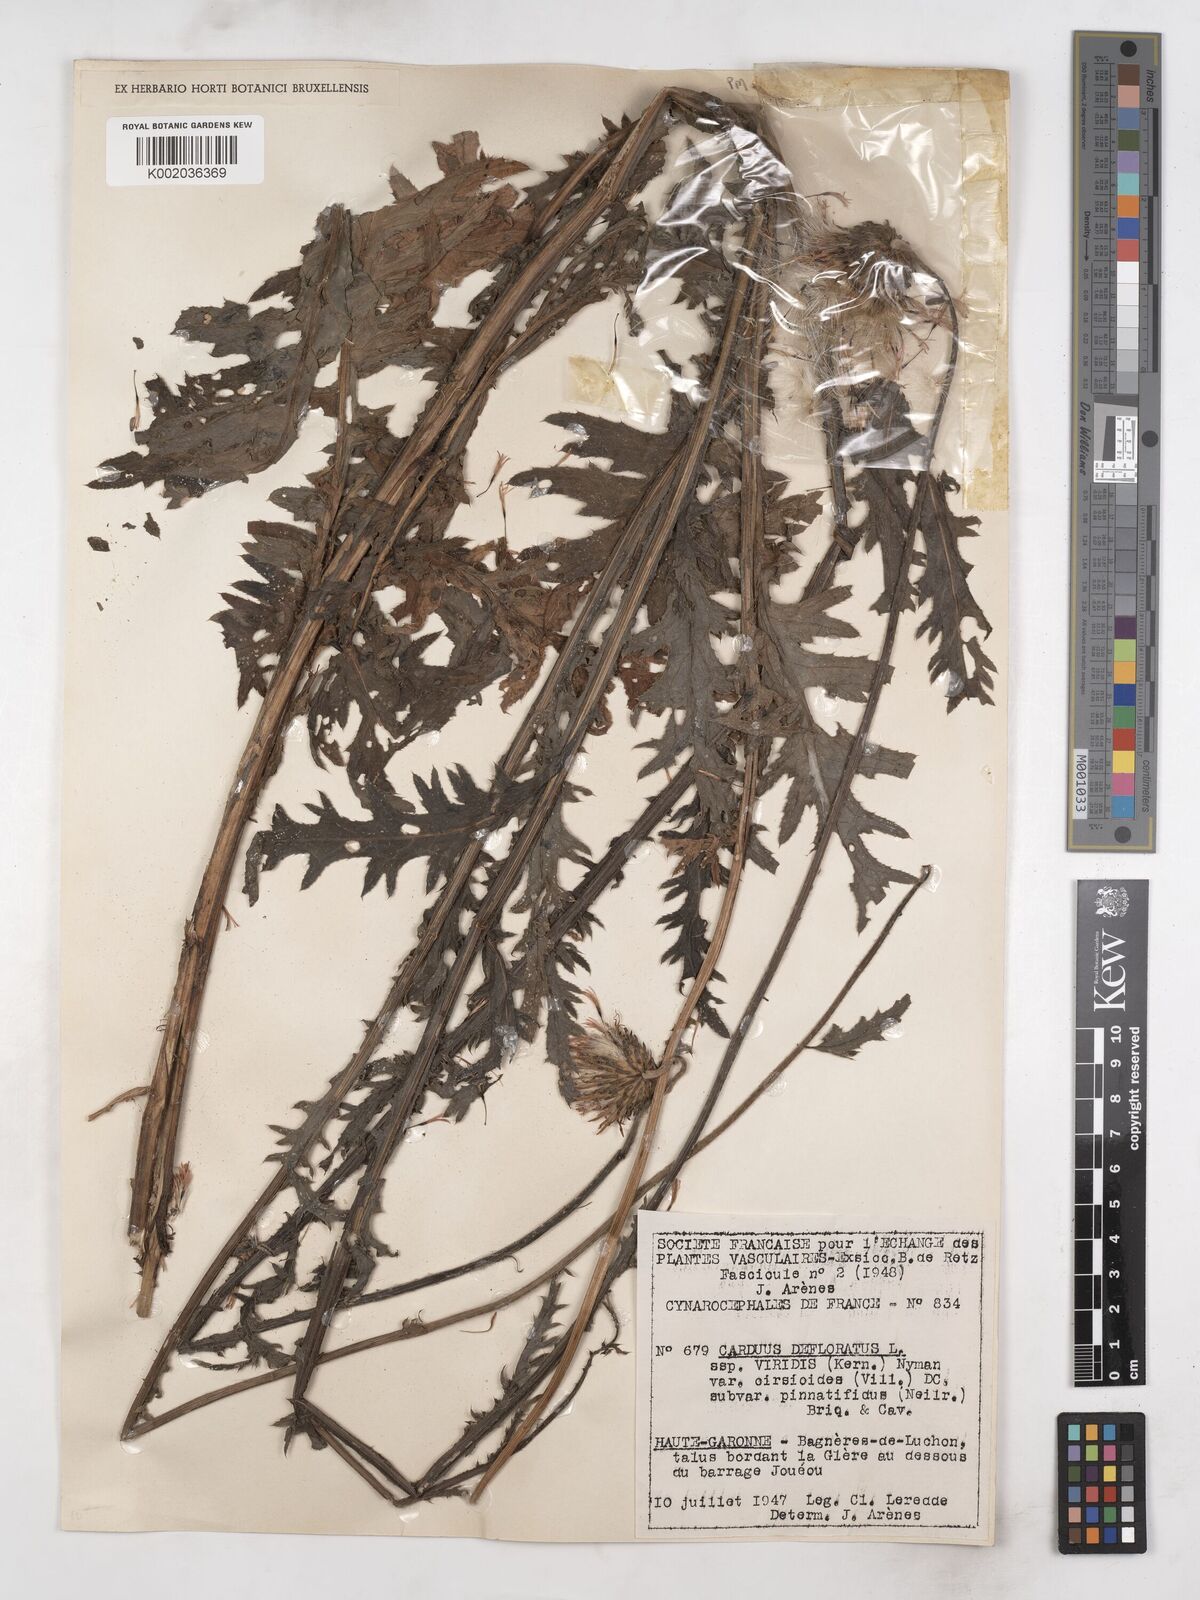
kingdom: Plantae
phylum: Tracheophyta
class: Magnoliopsida
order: Asterales
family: Asteraceae
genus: Carduus
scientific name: Carduus defloratus
